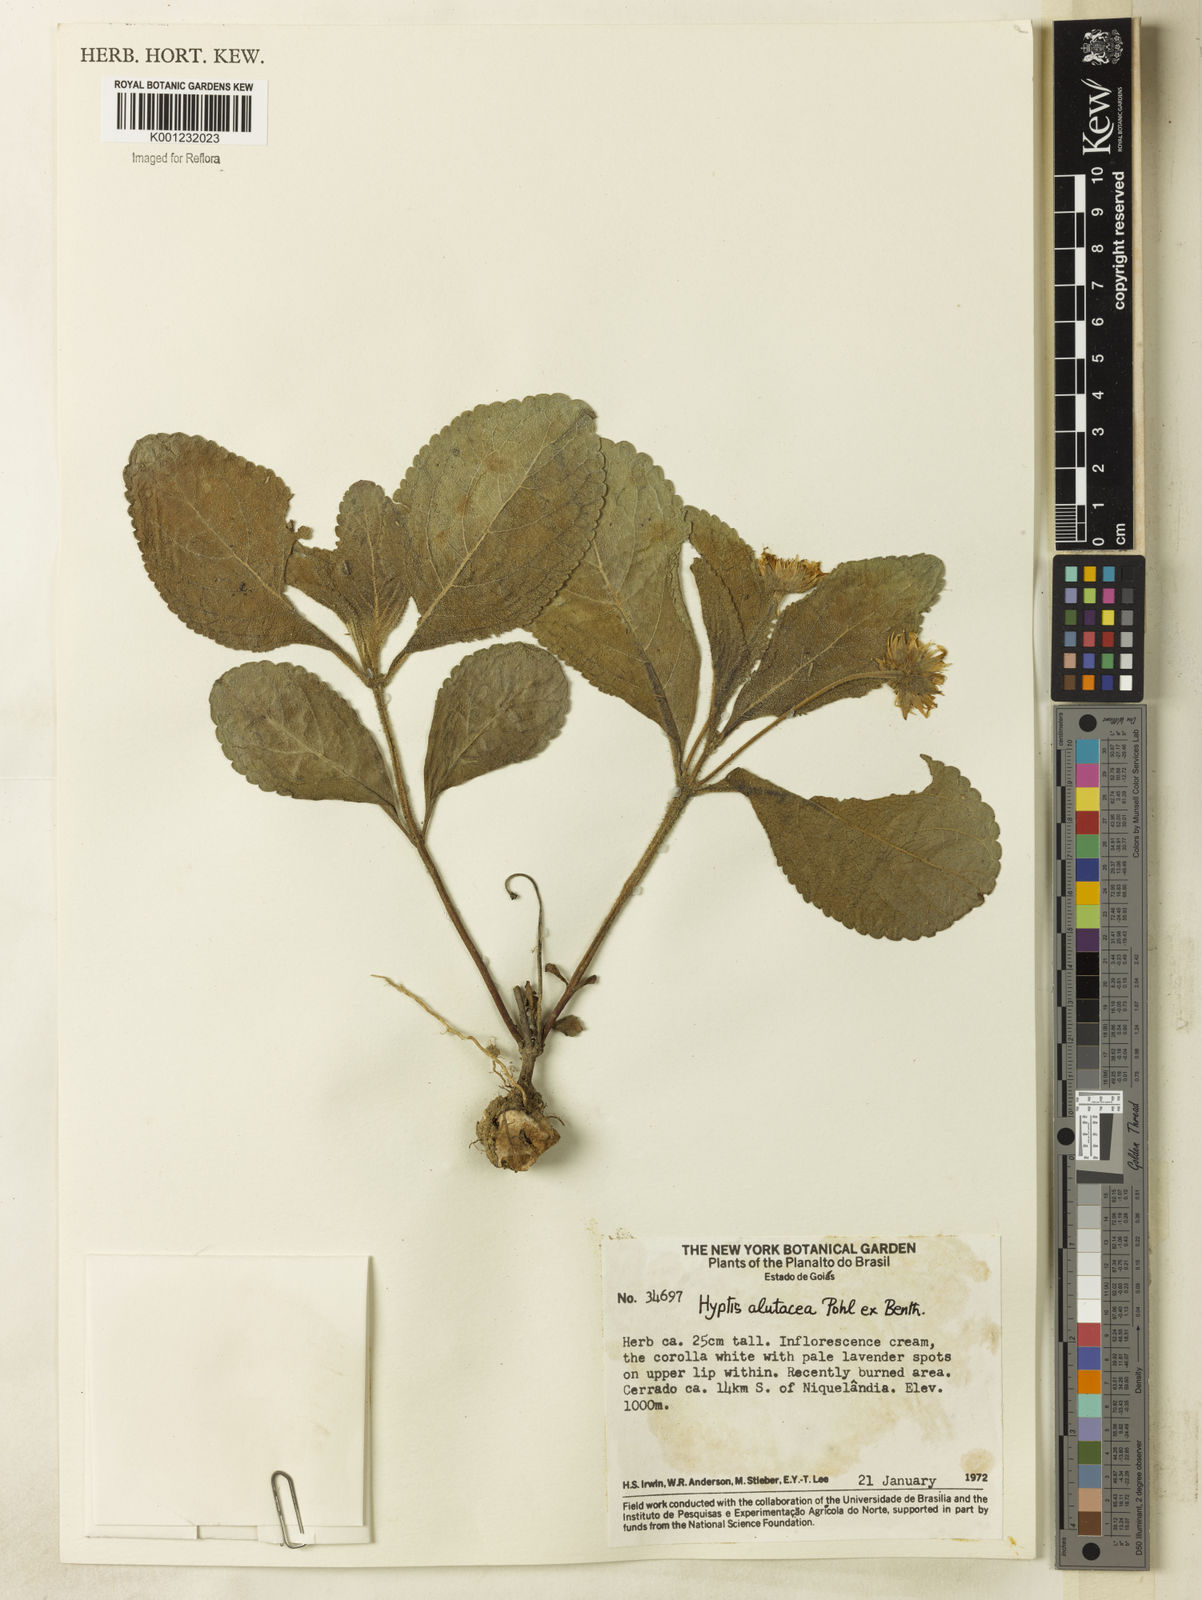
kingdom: Plantae
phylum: Tracheophyta
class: Magnoliopsida
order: Lamiales
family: Lamiaceae
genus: Hyptis
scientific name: Hyptis alutacea
